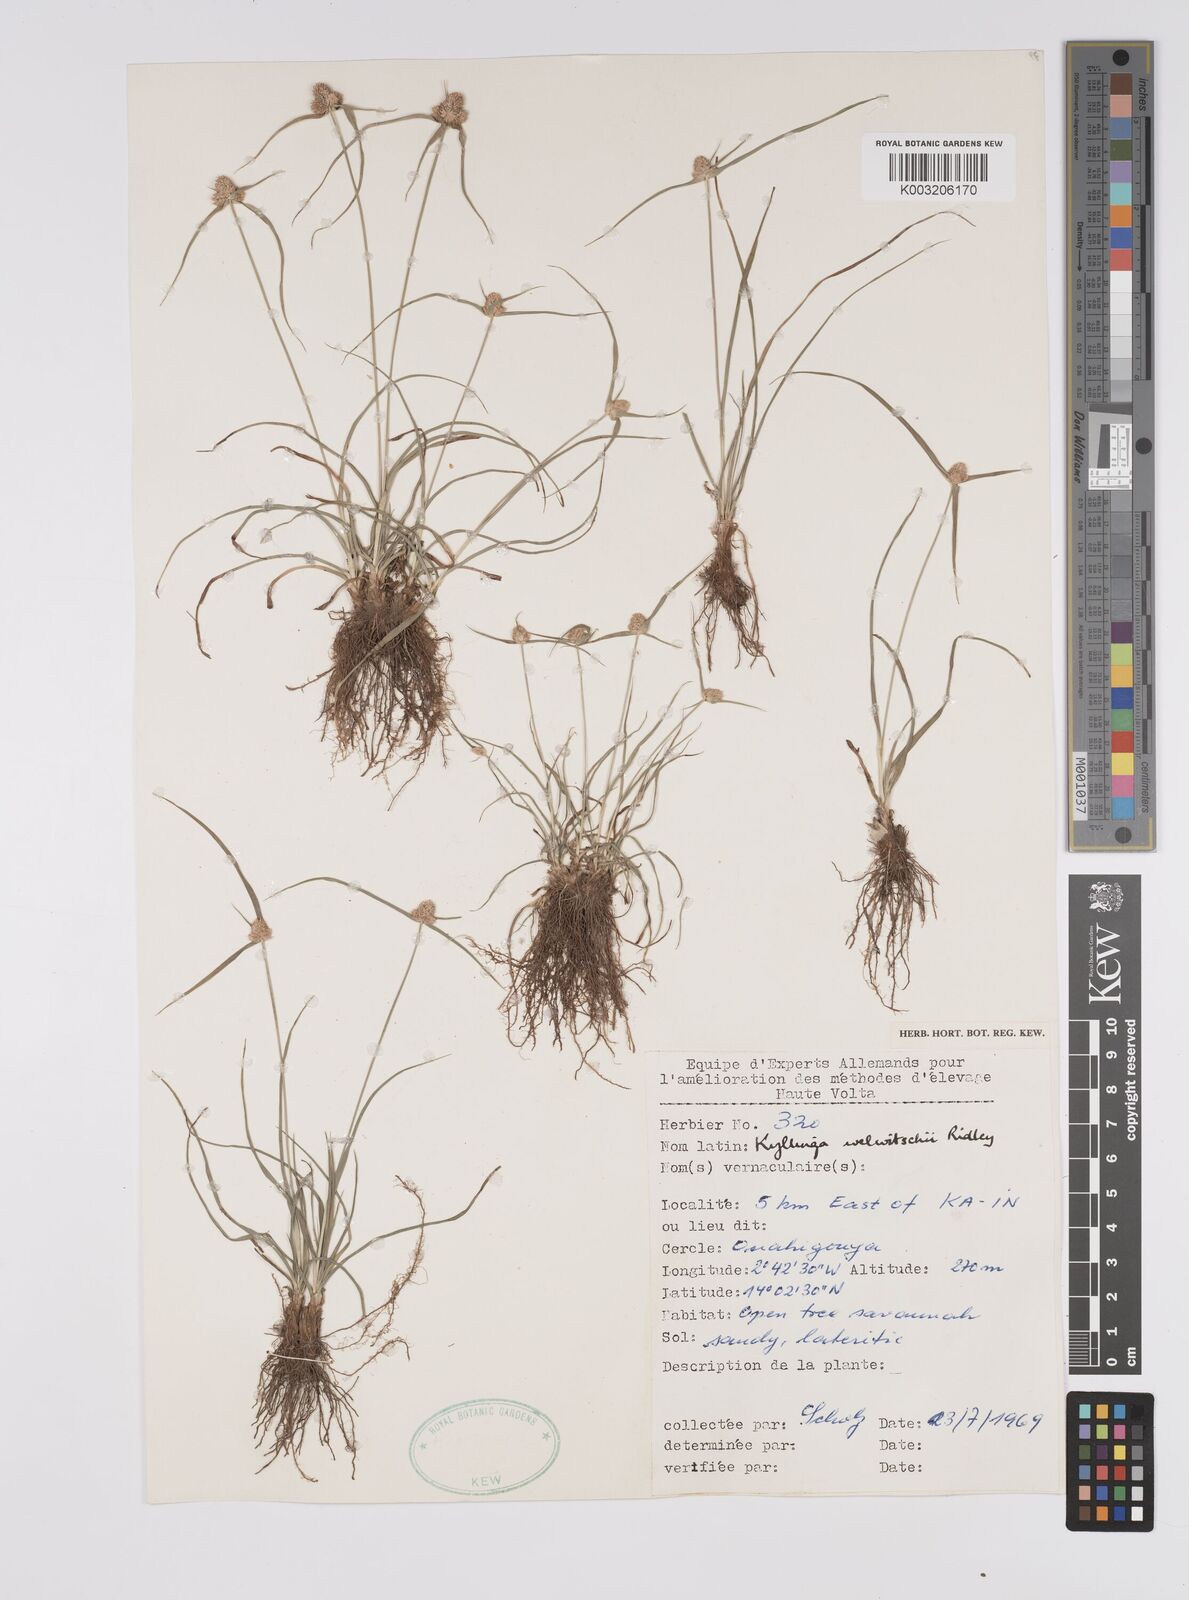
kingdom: Plantae
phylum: Tracheophyta
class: Liliopsida
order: Poales
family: Cyperaceae
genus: Cyperus
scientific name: Cyperus
